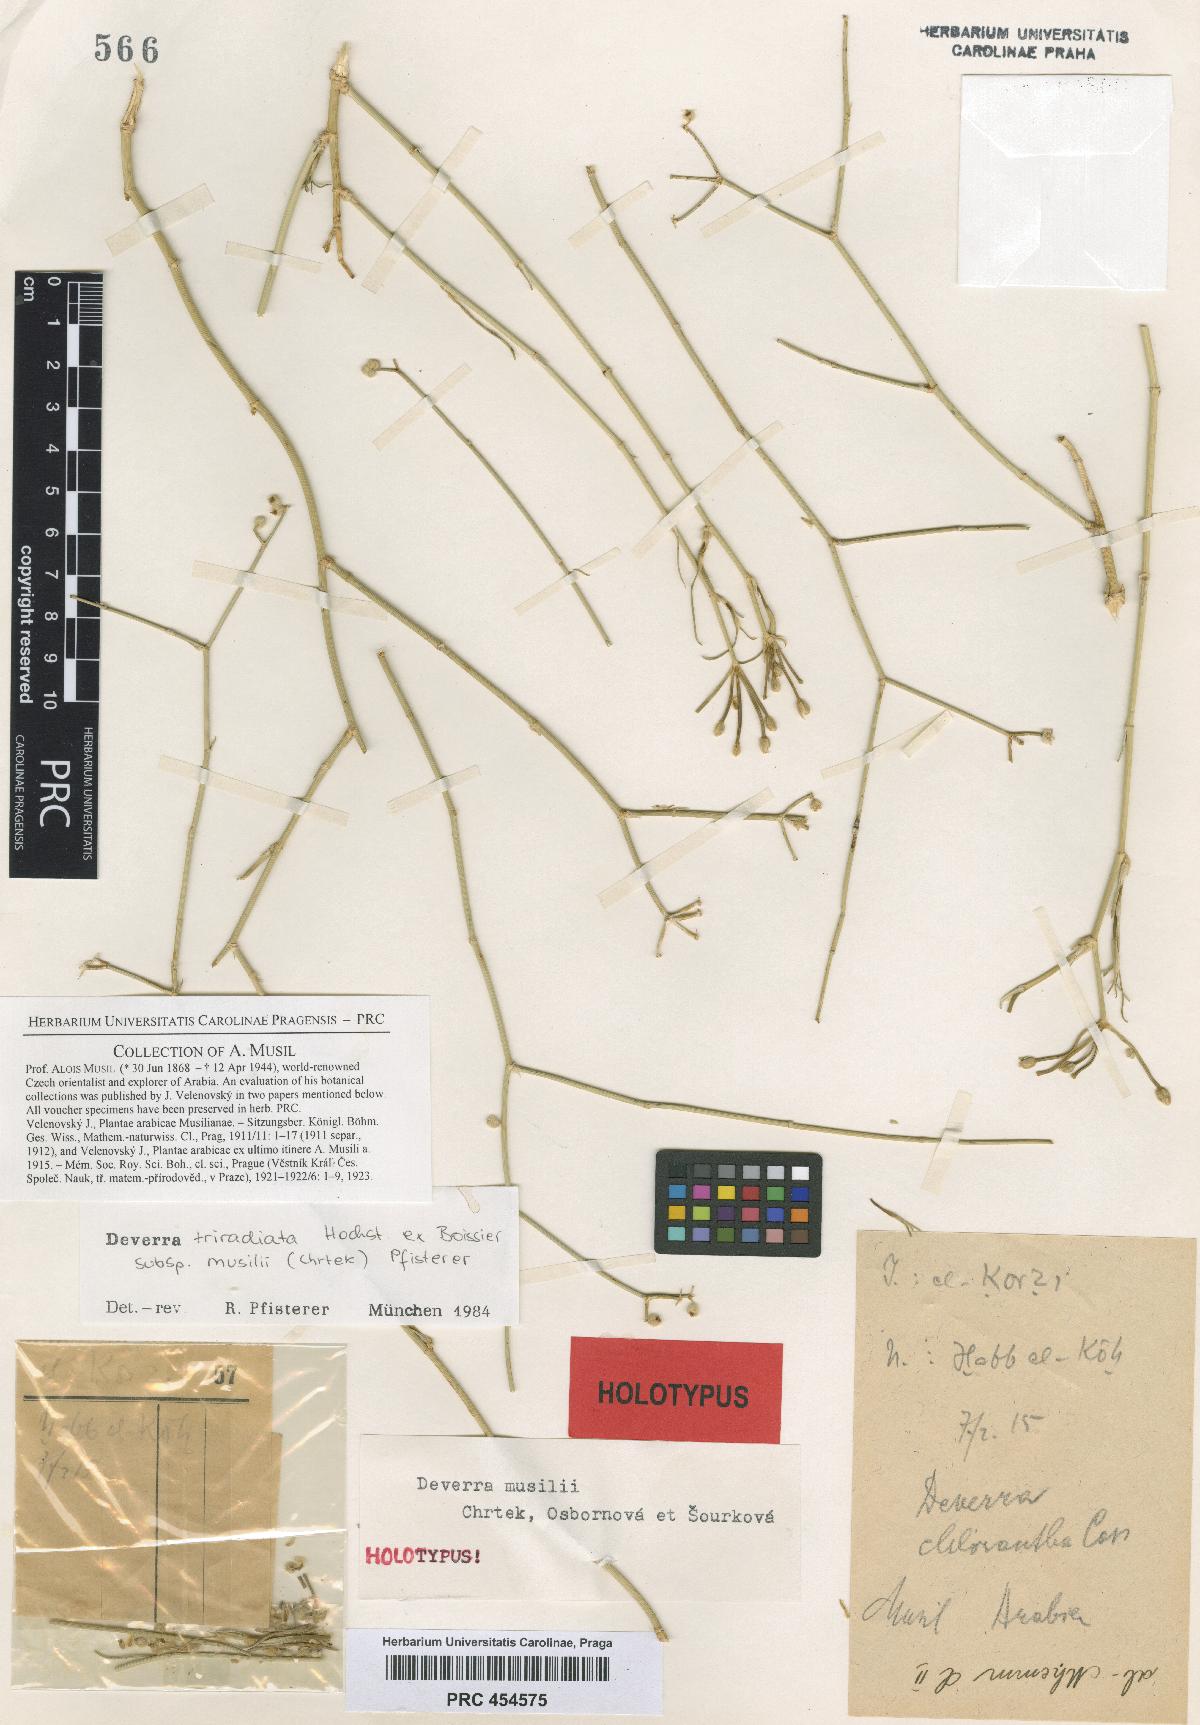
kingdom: Plantae
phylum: Tracheophyta
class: Magnoliopsida
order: Apiales
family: Apiaceae
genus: Deverra
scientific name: Deverra triradiata
